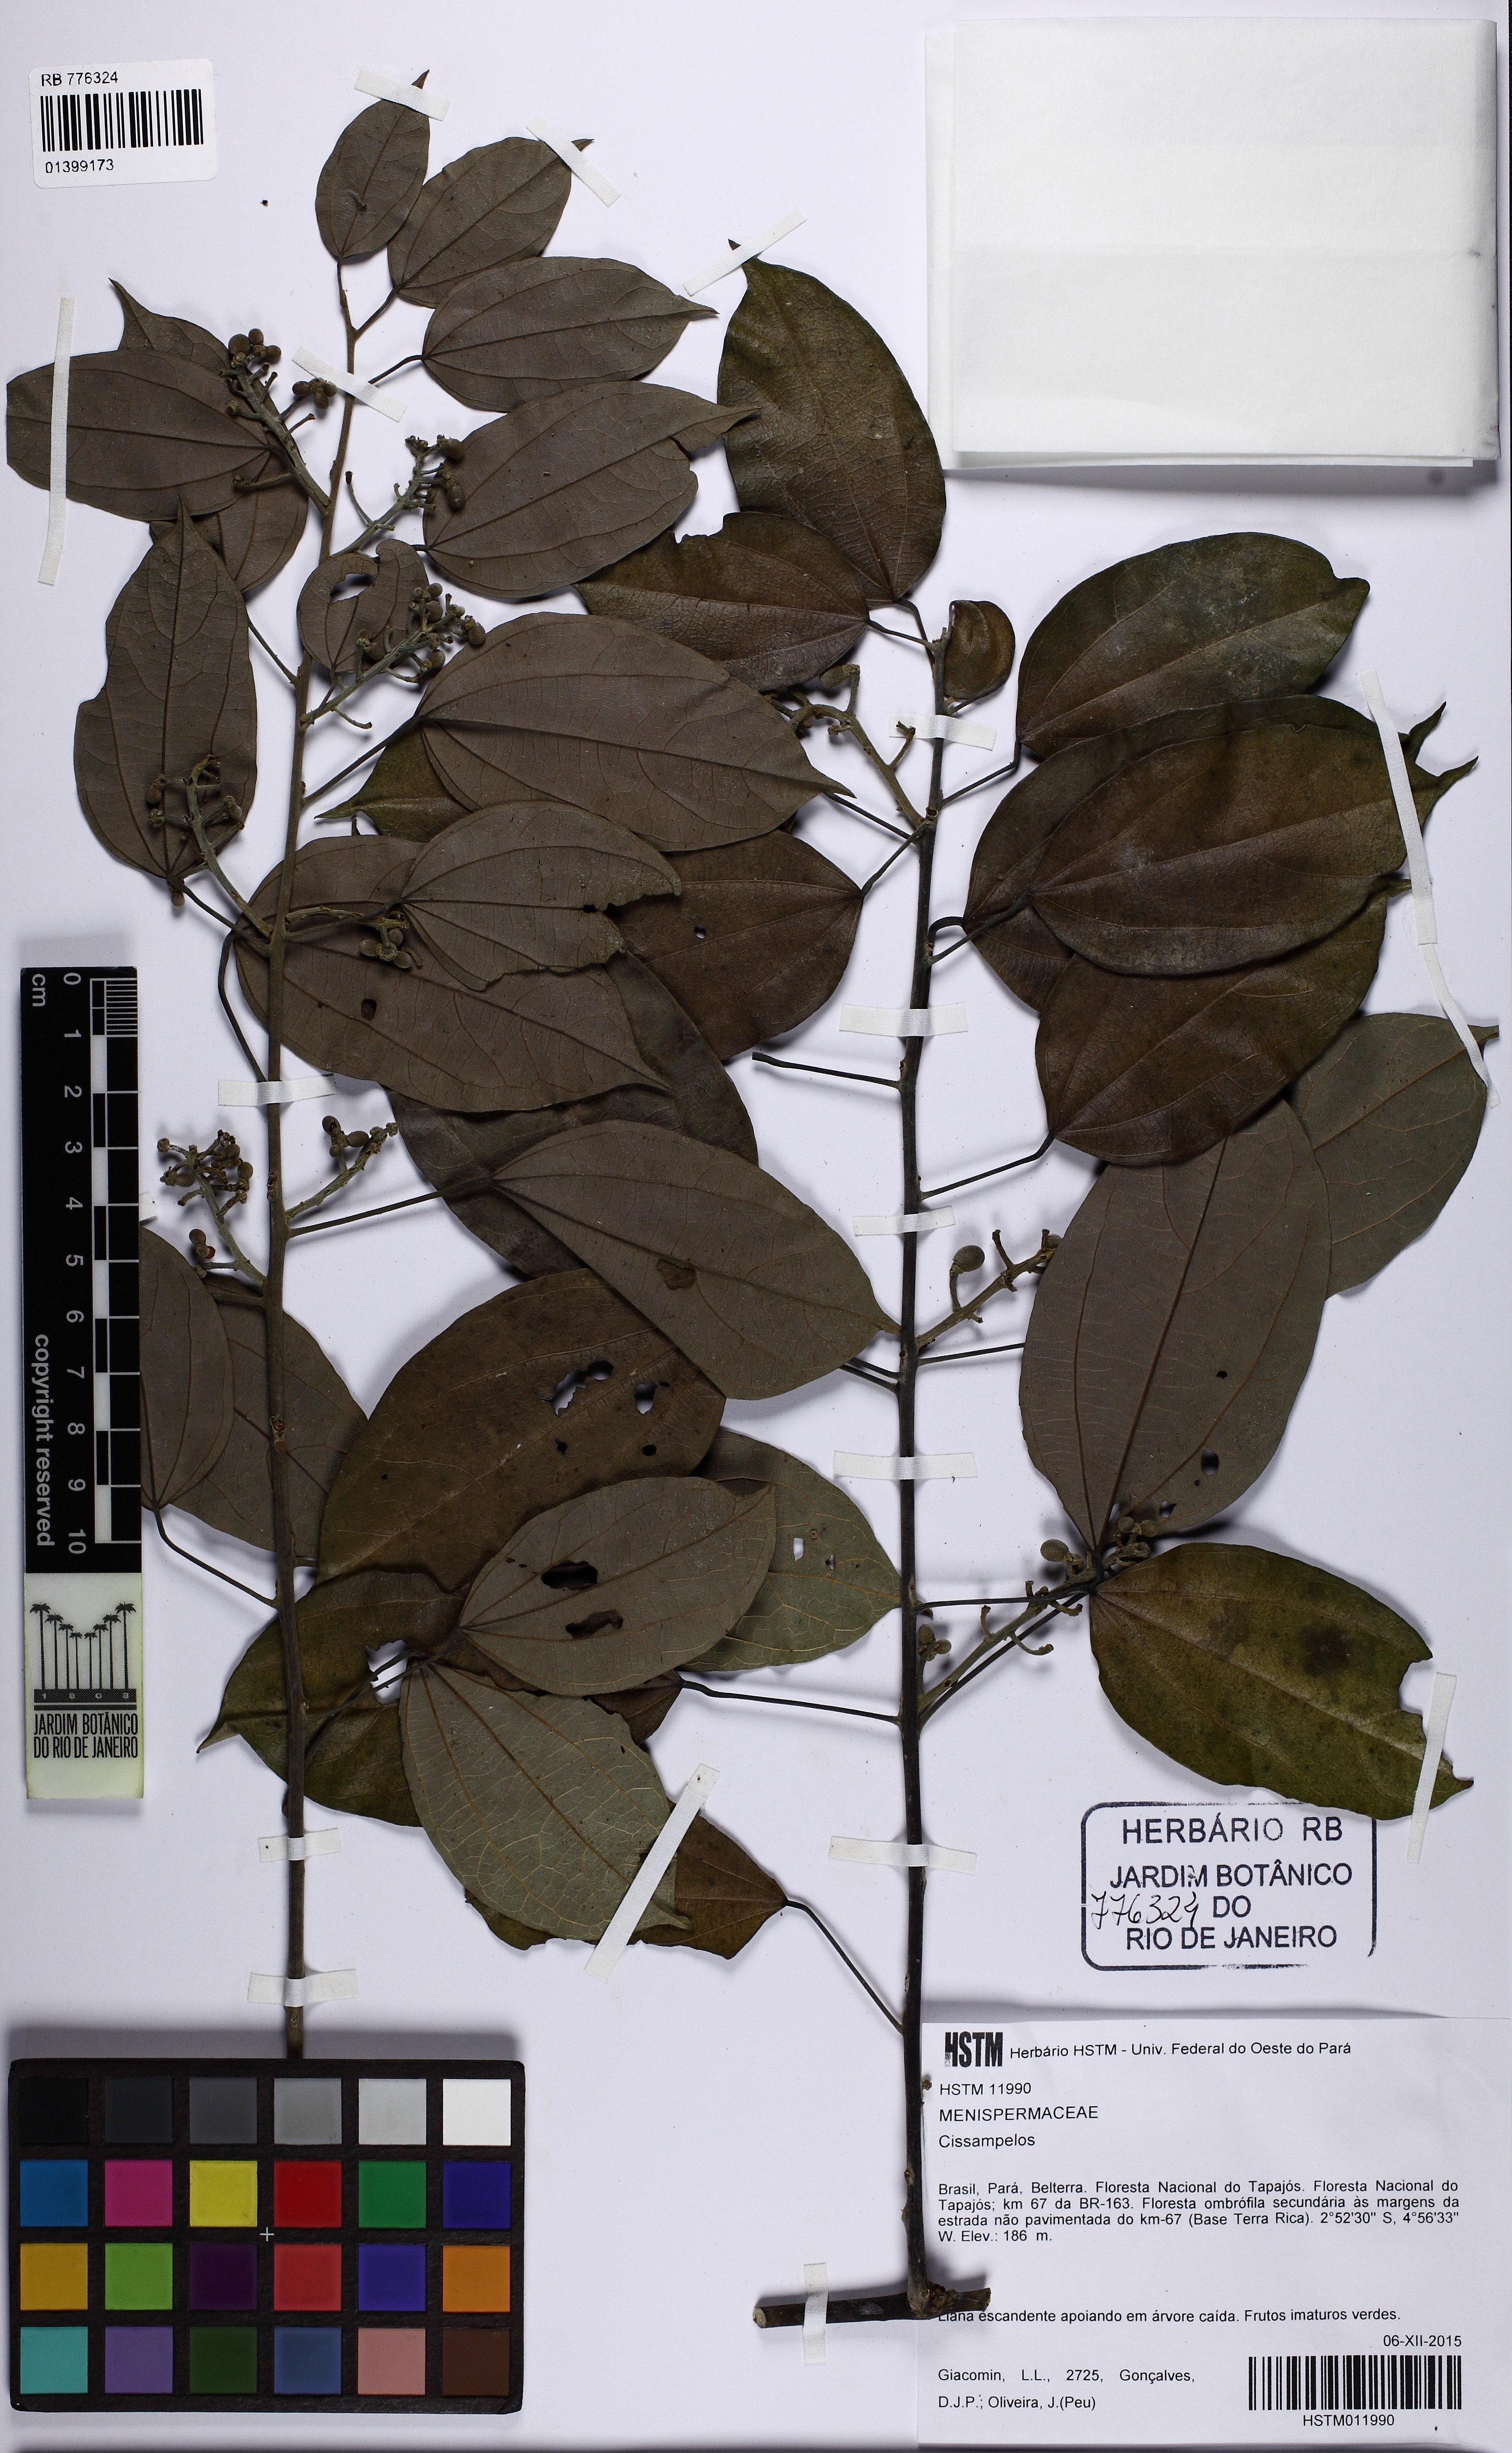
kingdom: Plantae
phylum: Tracheophyta
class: Magnoliopsida
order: Ranunculales
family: Menispermaceae
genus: Cissampelos
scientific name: Cissampelos
